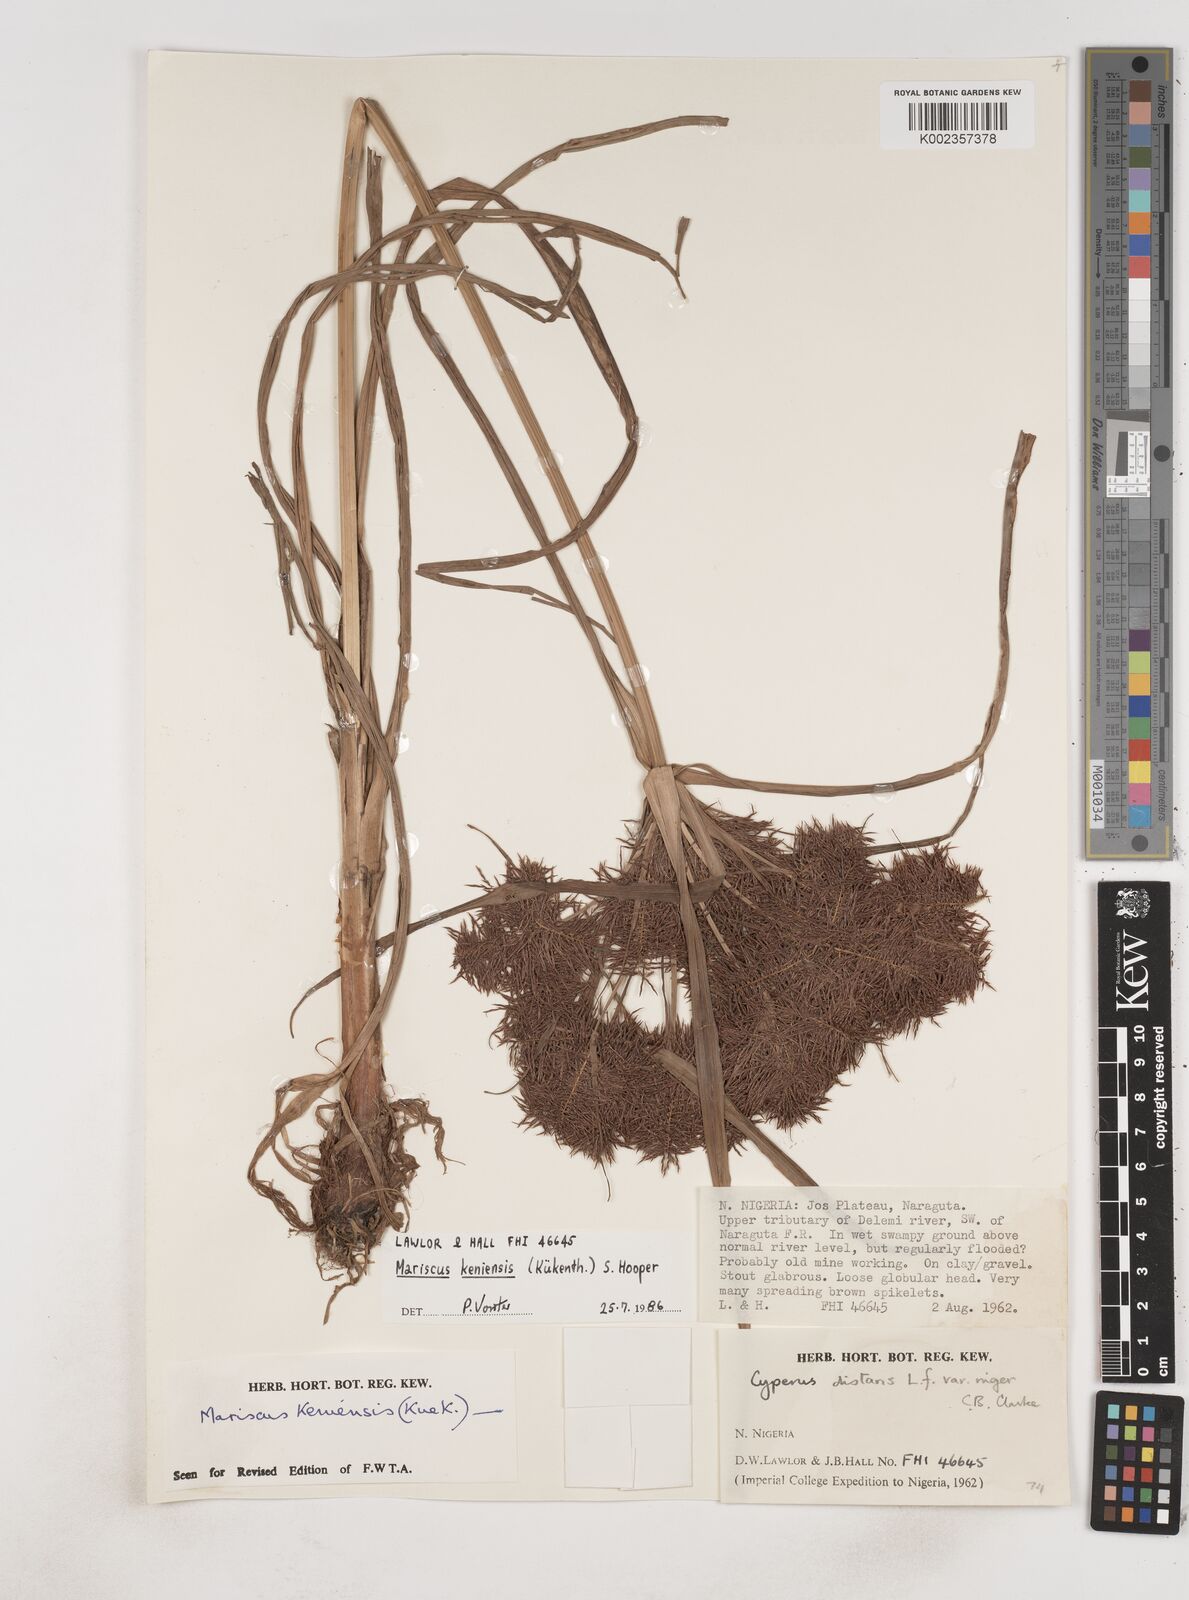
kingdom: Plantae
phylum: Tracheophyta
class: Liliopsida
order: Poales
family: Cyperaceae
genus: Cyperus
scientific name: Cyperus distans
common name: Slender cyperus
